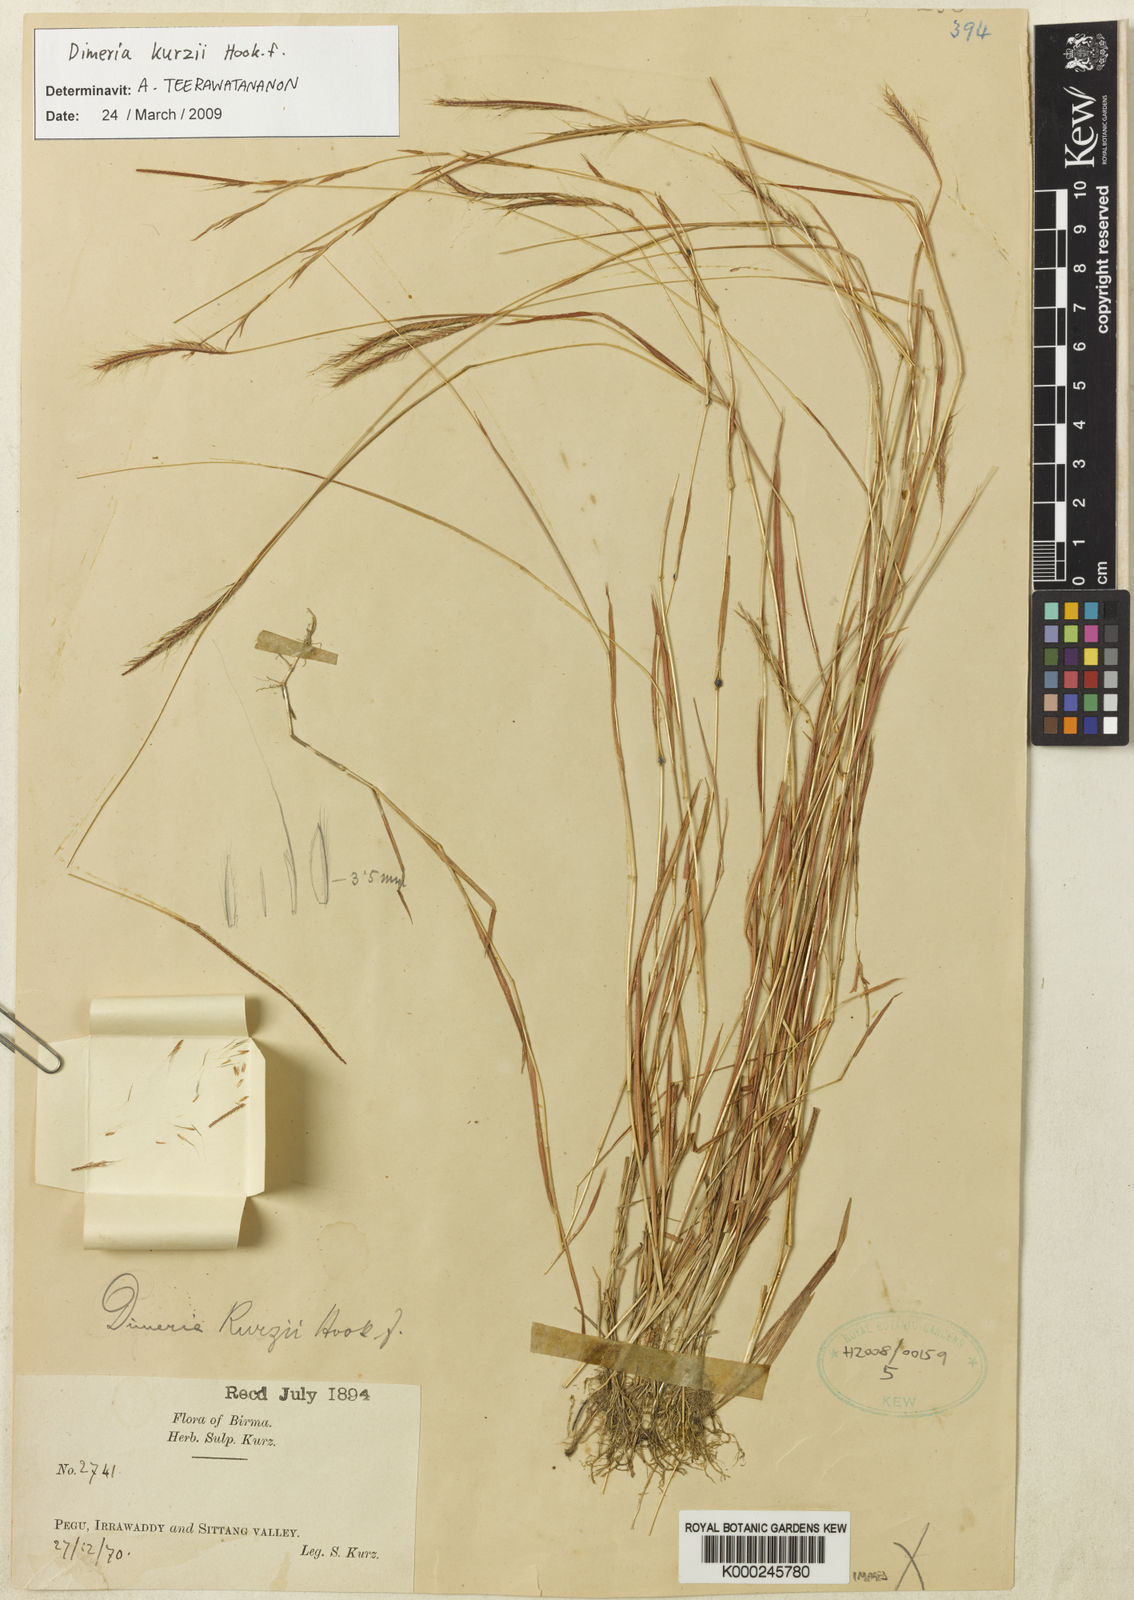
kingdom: Plantae
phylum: Tracheophyta
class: Liliopsida
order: Poales
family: Poaceae
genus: Dimeria
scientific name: Dimeria kurzii
